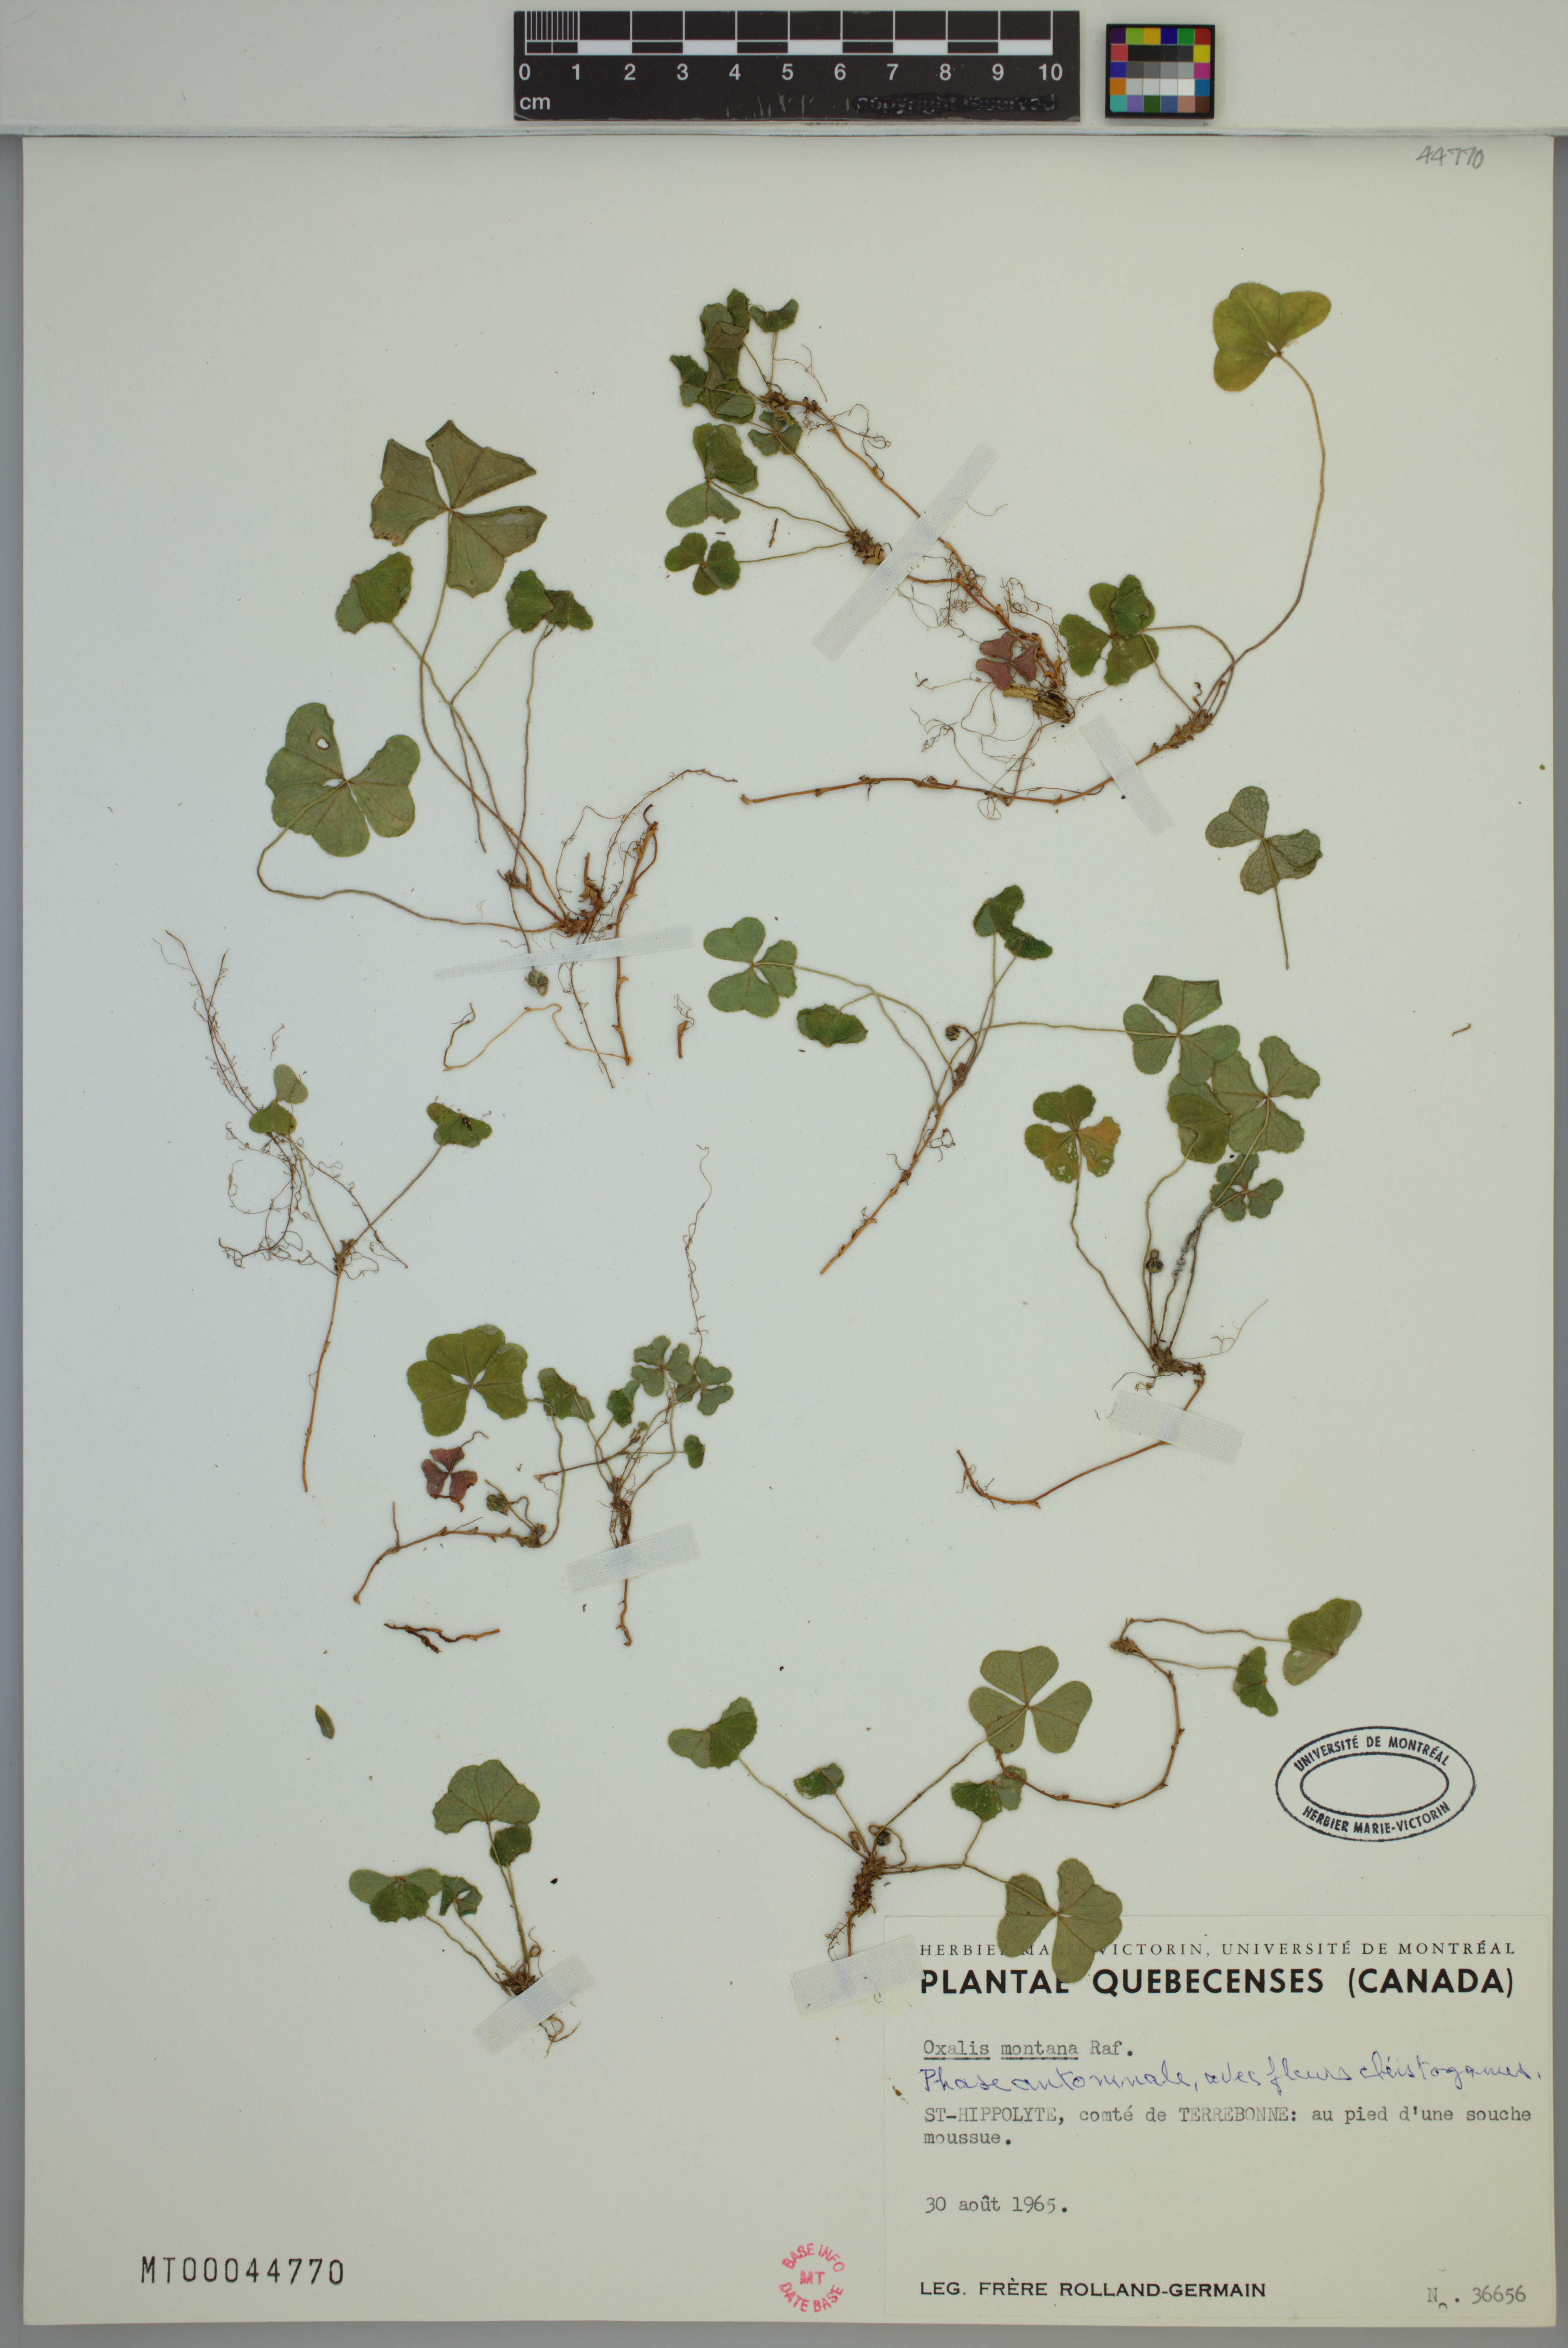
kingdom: Plantae
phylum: Tracheophyta
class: Magnoliopsida
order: Oxalidales
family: Oxalidaceae
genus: Oxalis
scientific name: Oxalis montana
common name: American wood-sorrel
